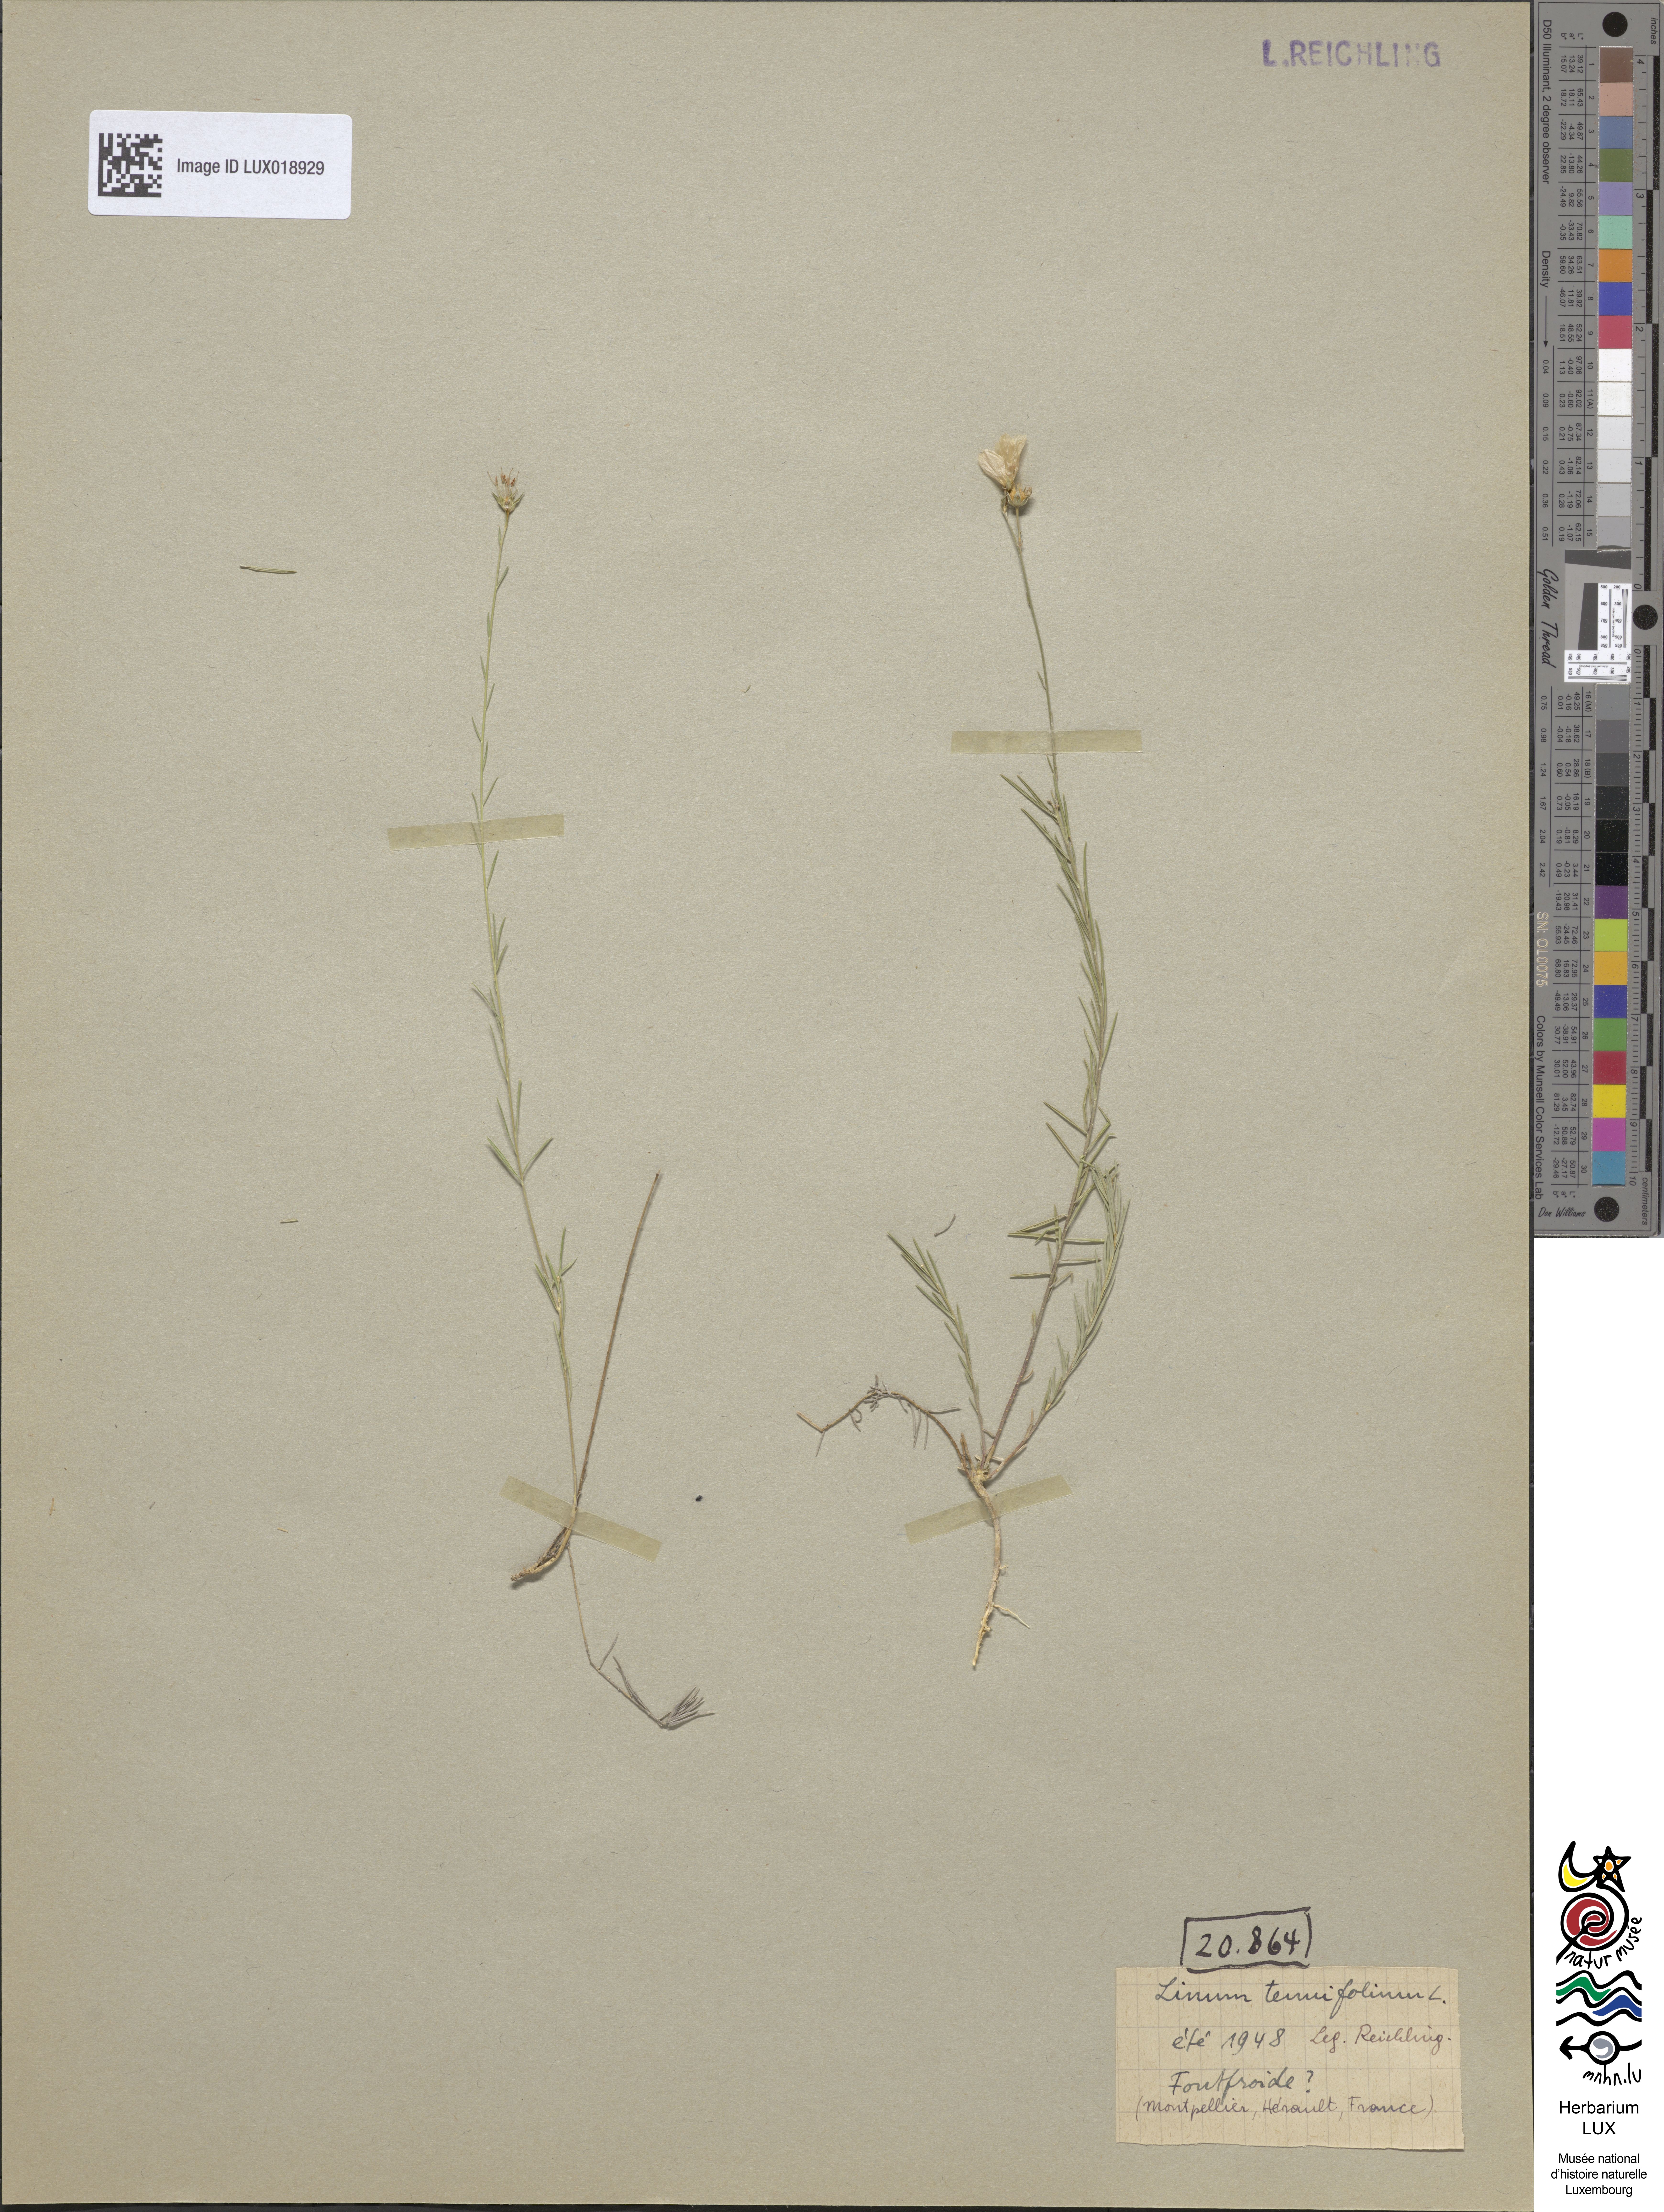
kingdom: Plantae
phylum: Tracheophyta
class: Magnoliopsida
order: Malpighiales
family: Linaceae
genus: Linum
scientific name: Linum tenuifolium
